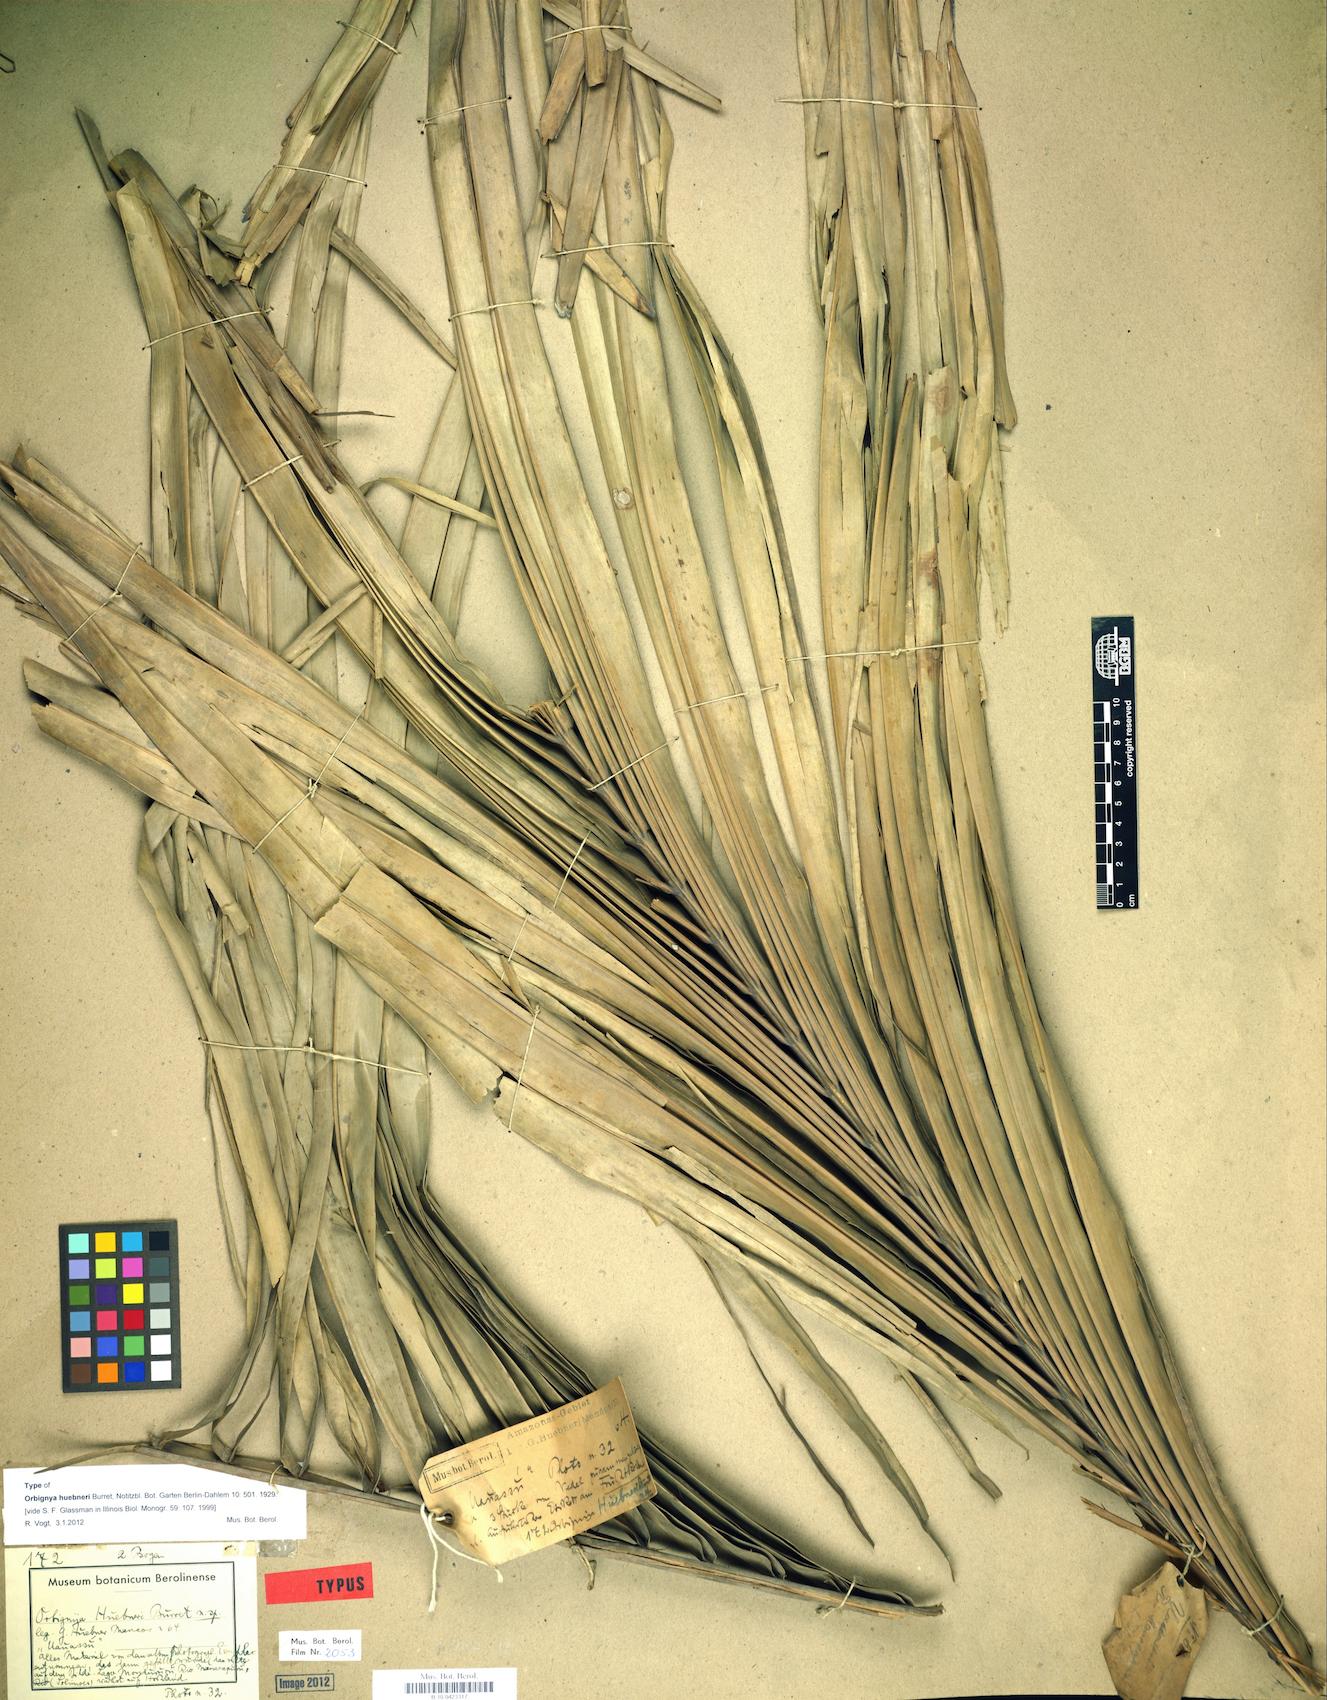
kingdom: Plantae
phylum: Tracheophyta
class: Liliopsida
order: Arecales
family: Arecaceae
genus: Attalea
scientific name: Attalea speciosa
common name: Babassu palm
